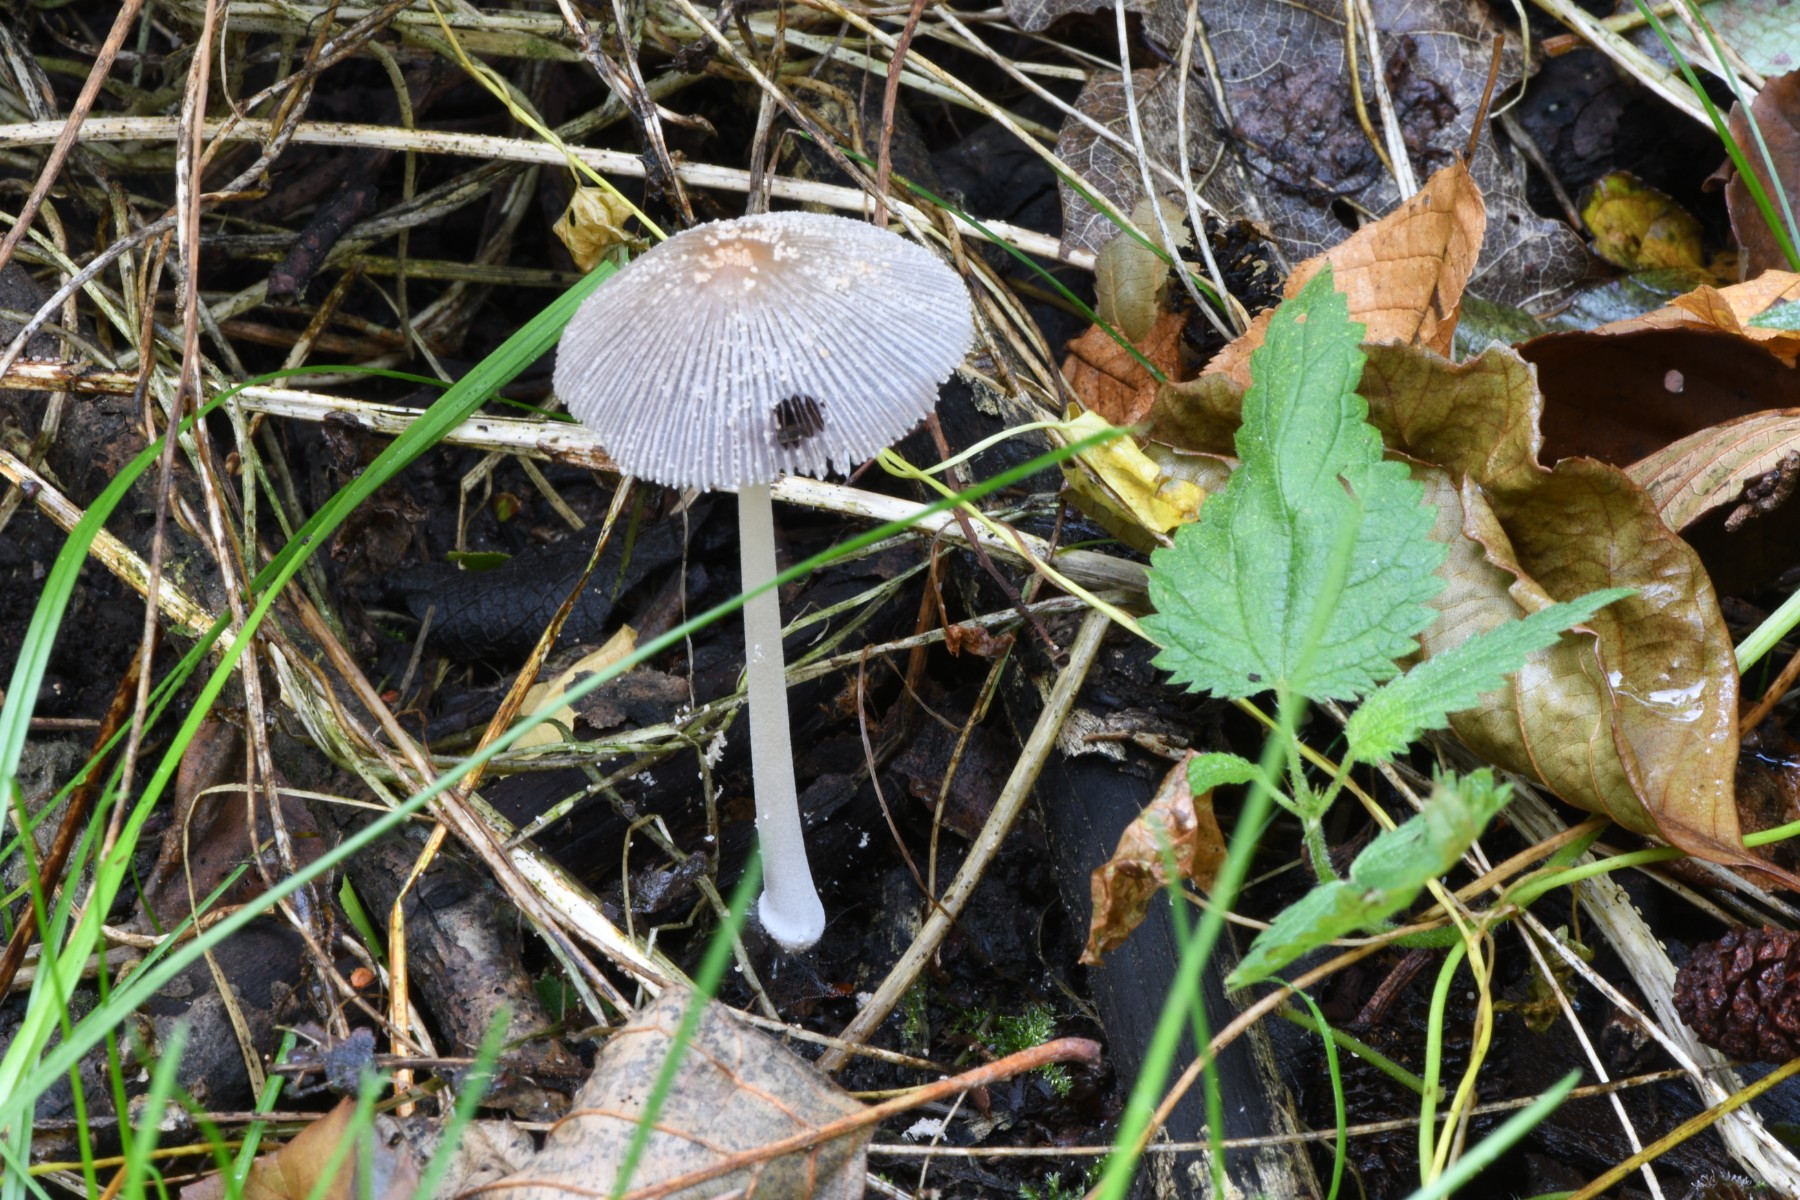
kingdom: Fungi
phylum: Basidiomycota
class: Agaricomycetes
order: Agaricales
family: Psathyrellaceae
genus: Coprinellus
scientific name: Coprinellus
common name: blækhat
